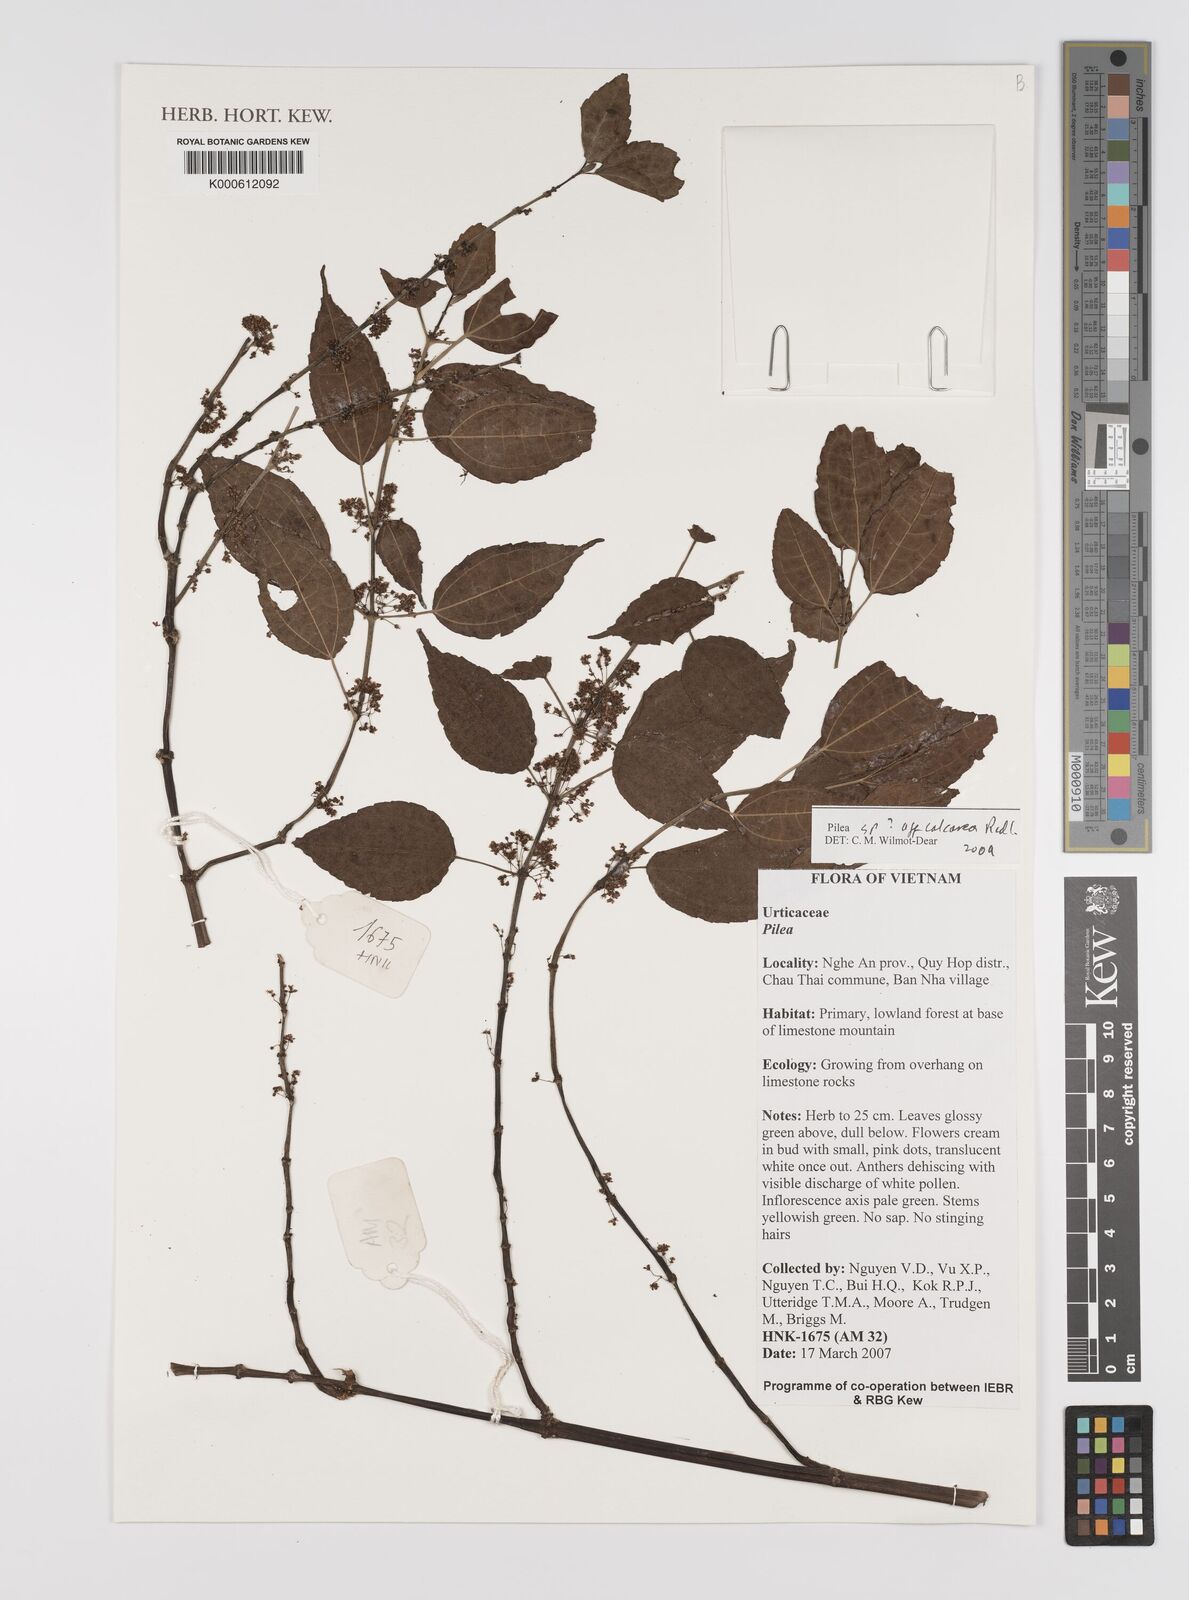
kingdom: Plantae
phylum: Tracheophyta
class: Magnoliopsida
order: Rosales
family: Urticaceae
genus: Pilea
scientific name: Pilea
